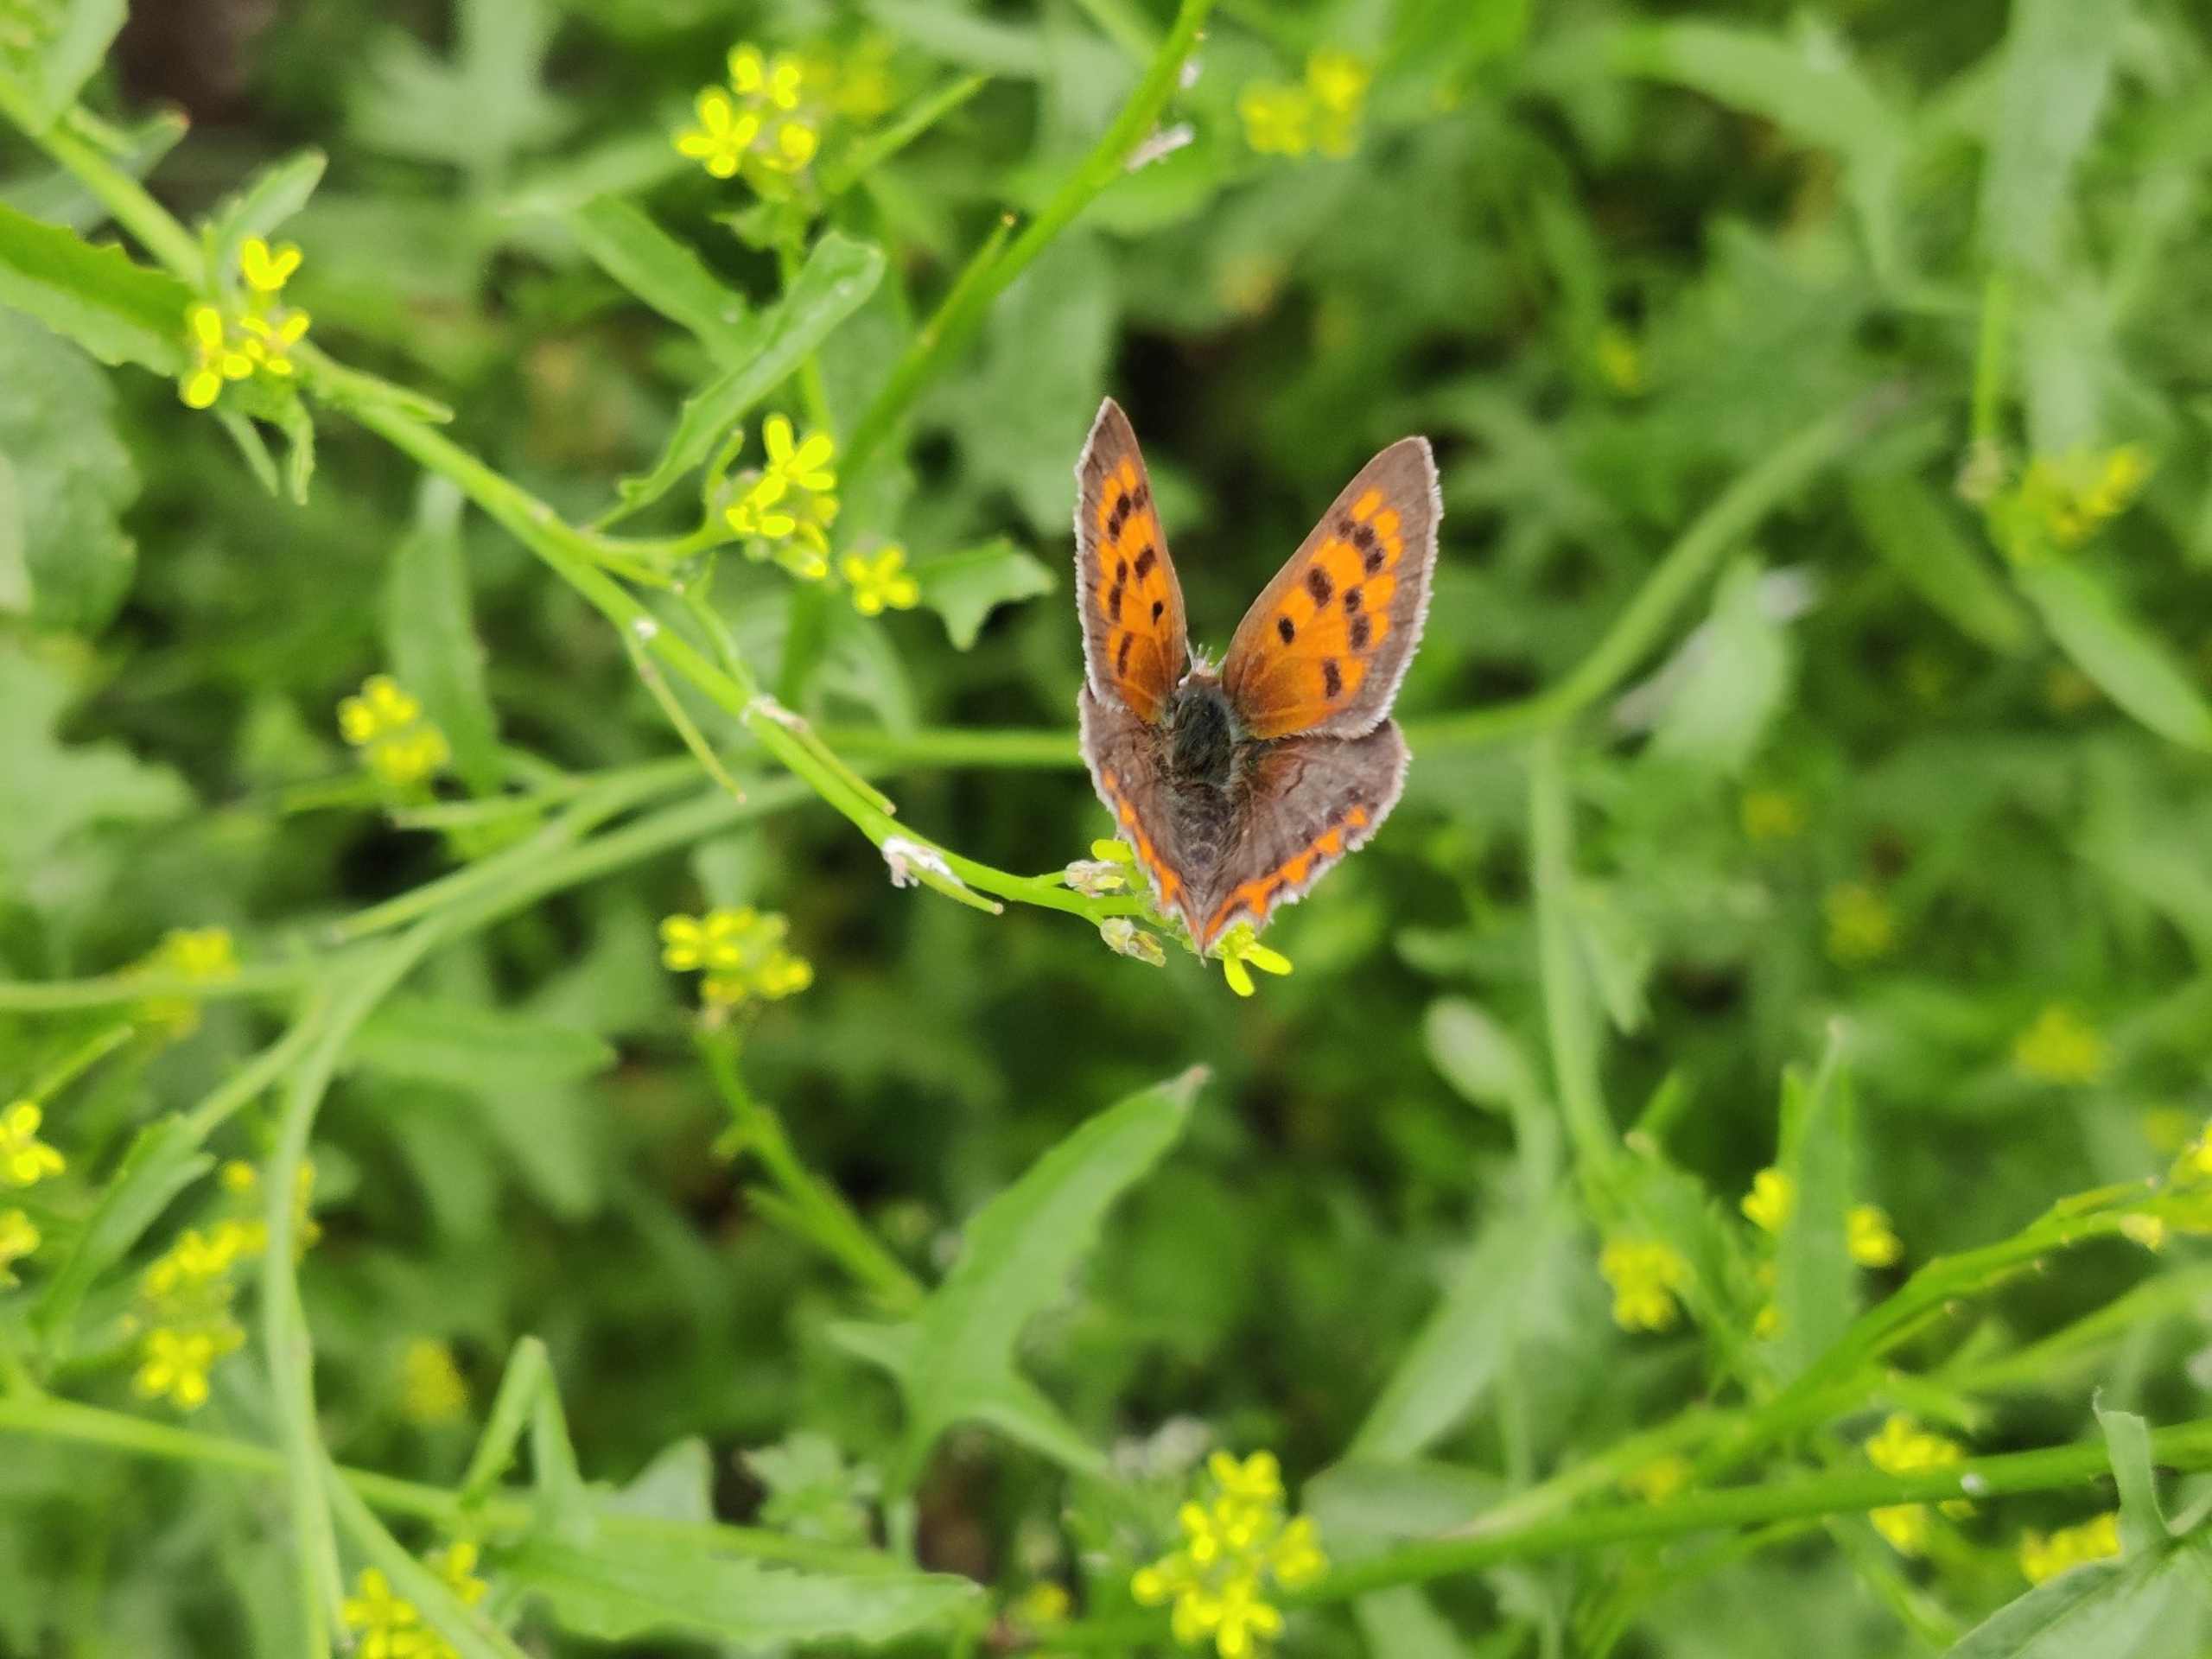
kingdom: Animalia
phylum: Arthropoda
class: Insecta
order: Lepidoptera
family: Lycaenidae
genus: Lycaena
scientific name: Lycaena phlaeas
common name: Lille ildfugl
